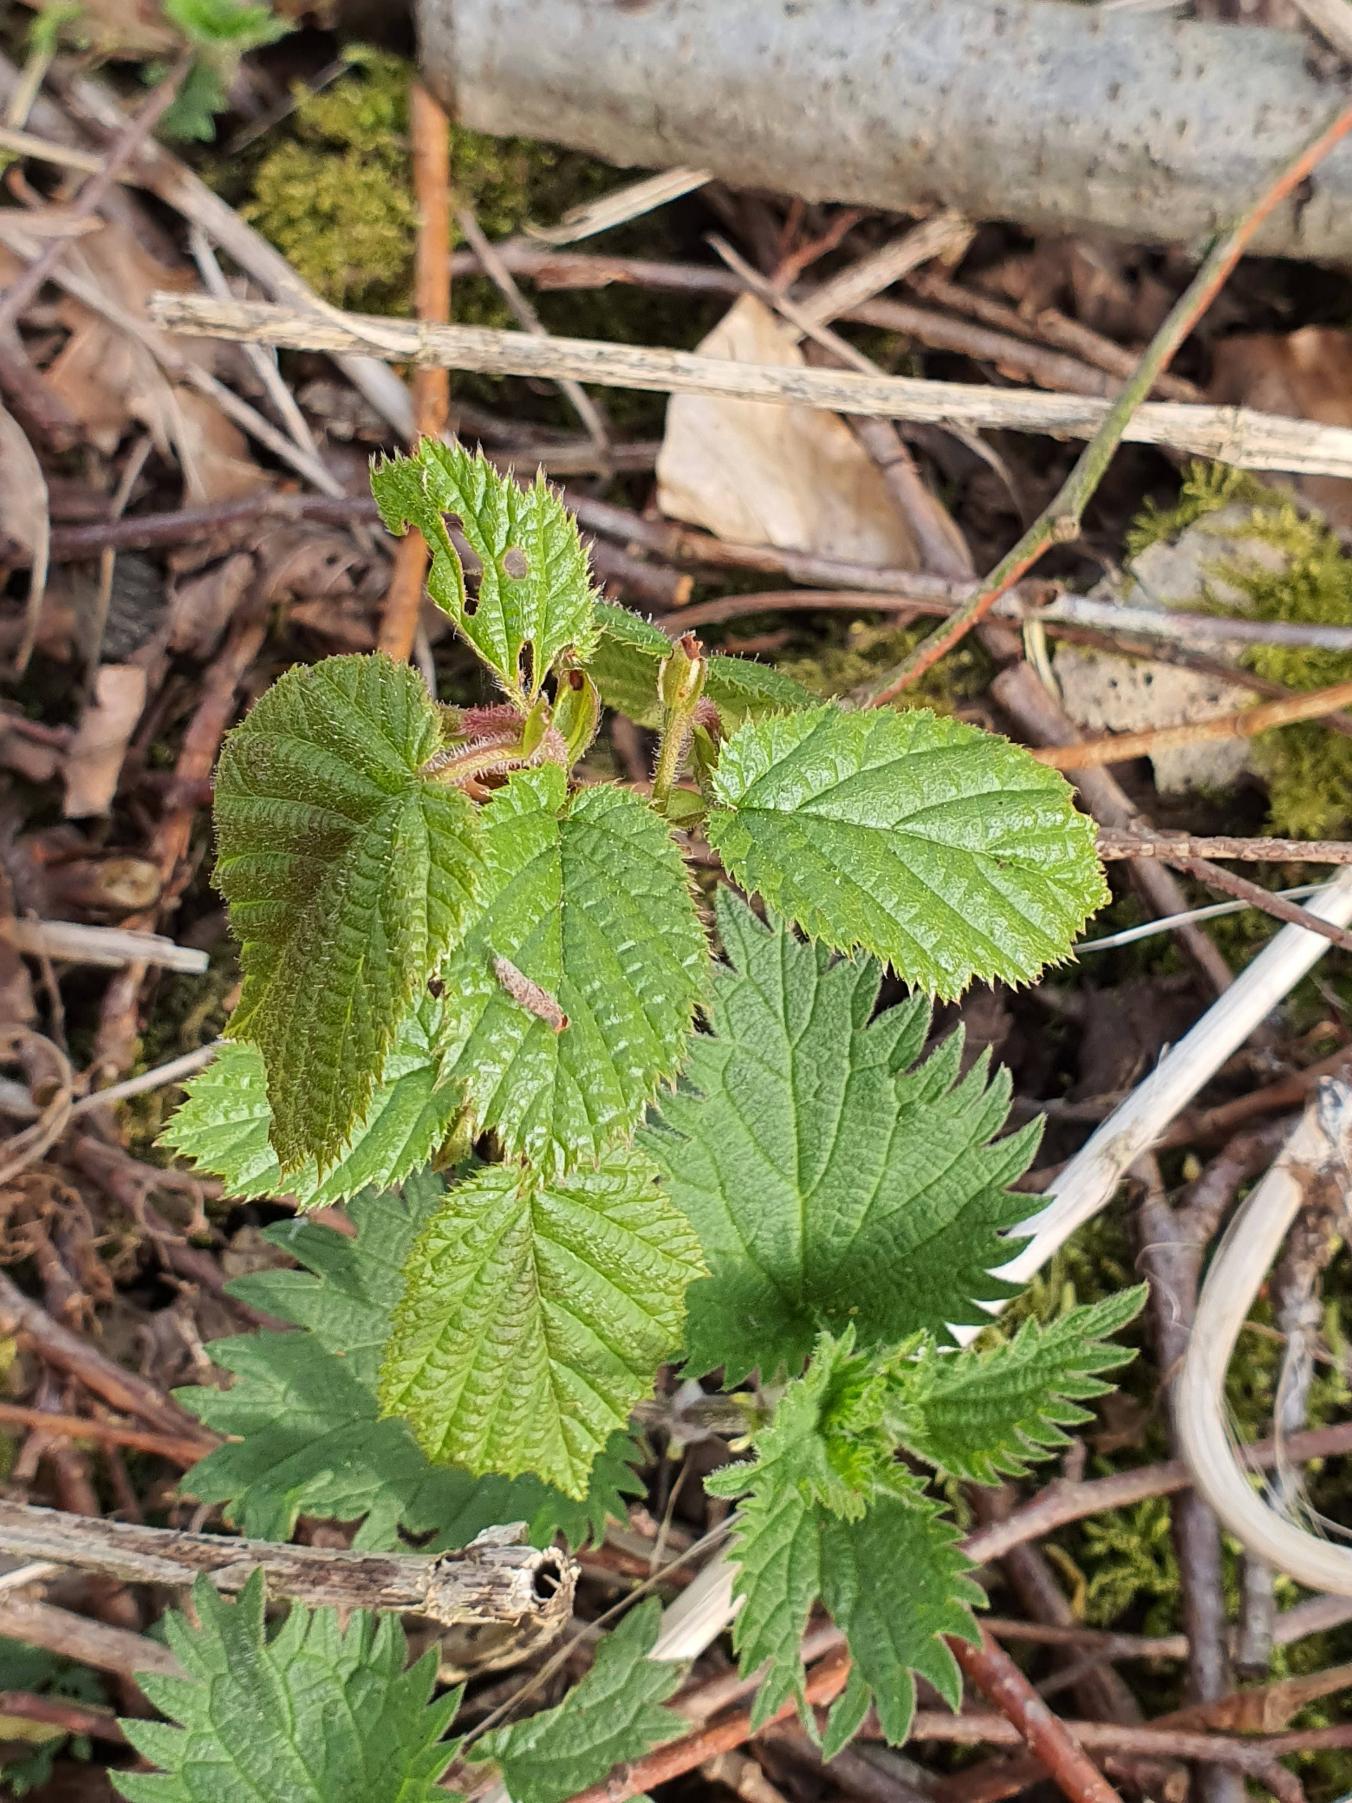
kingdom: Plantae
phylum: Tracheophyta
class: Magnoliopsida
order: Fagales
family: Betulaceae
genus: Corylus
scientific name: Corylus avellana
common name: Hassel
